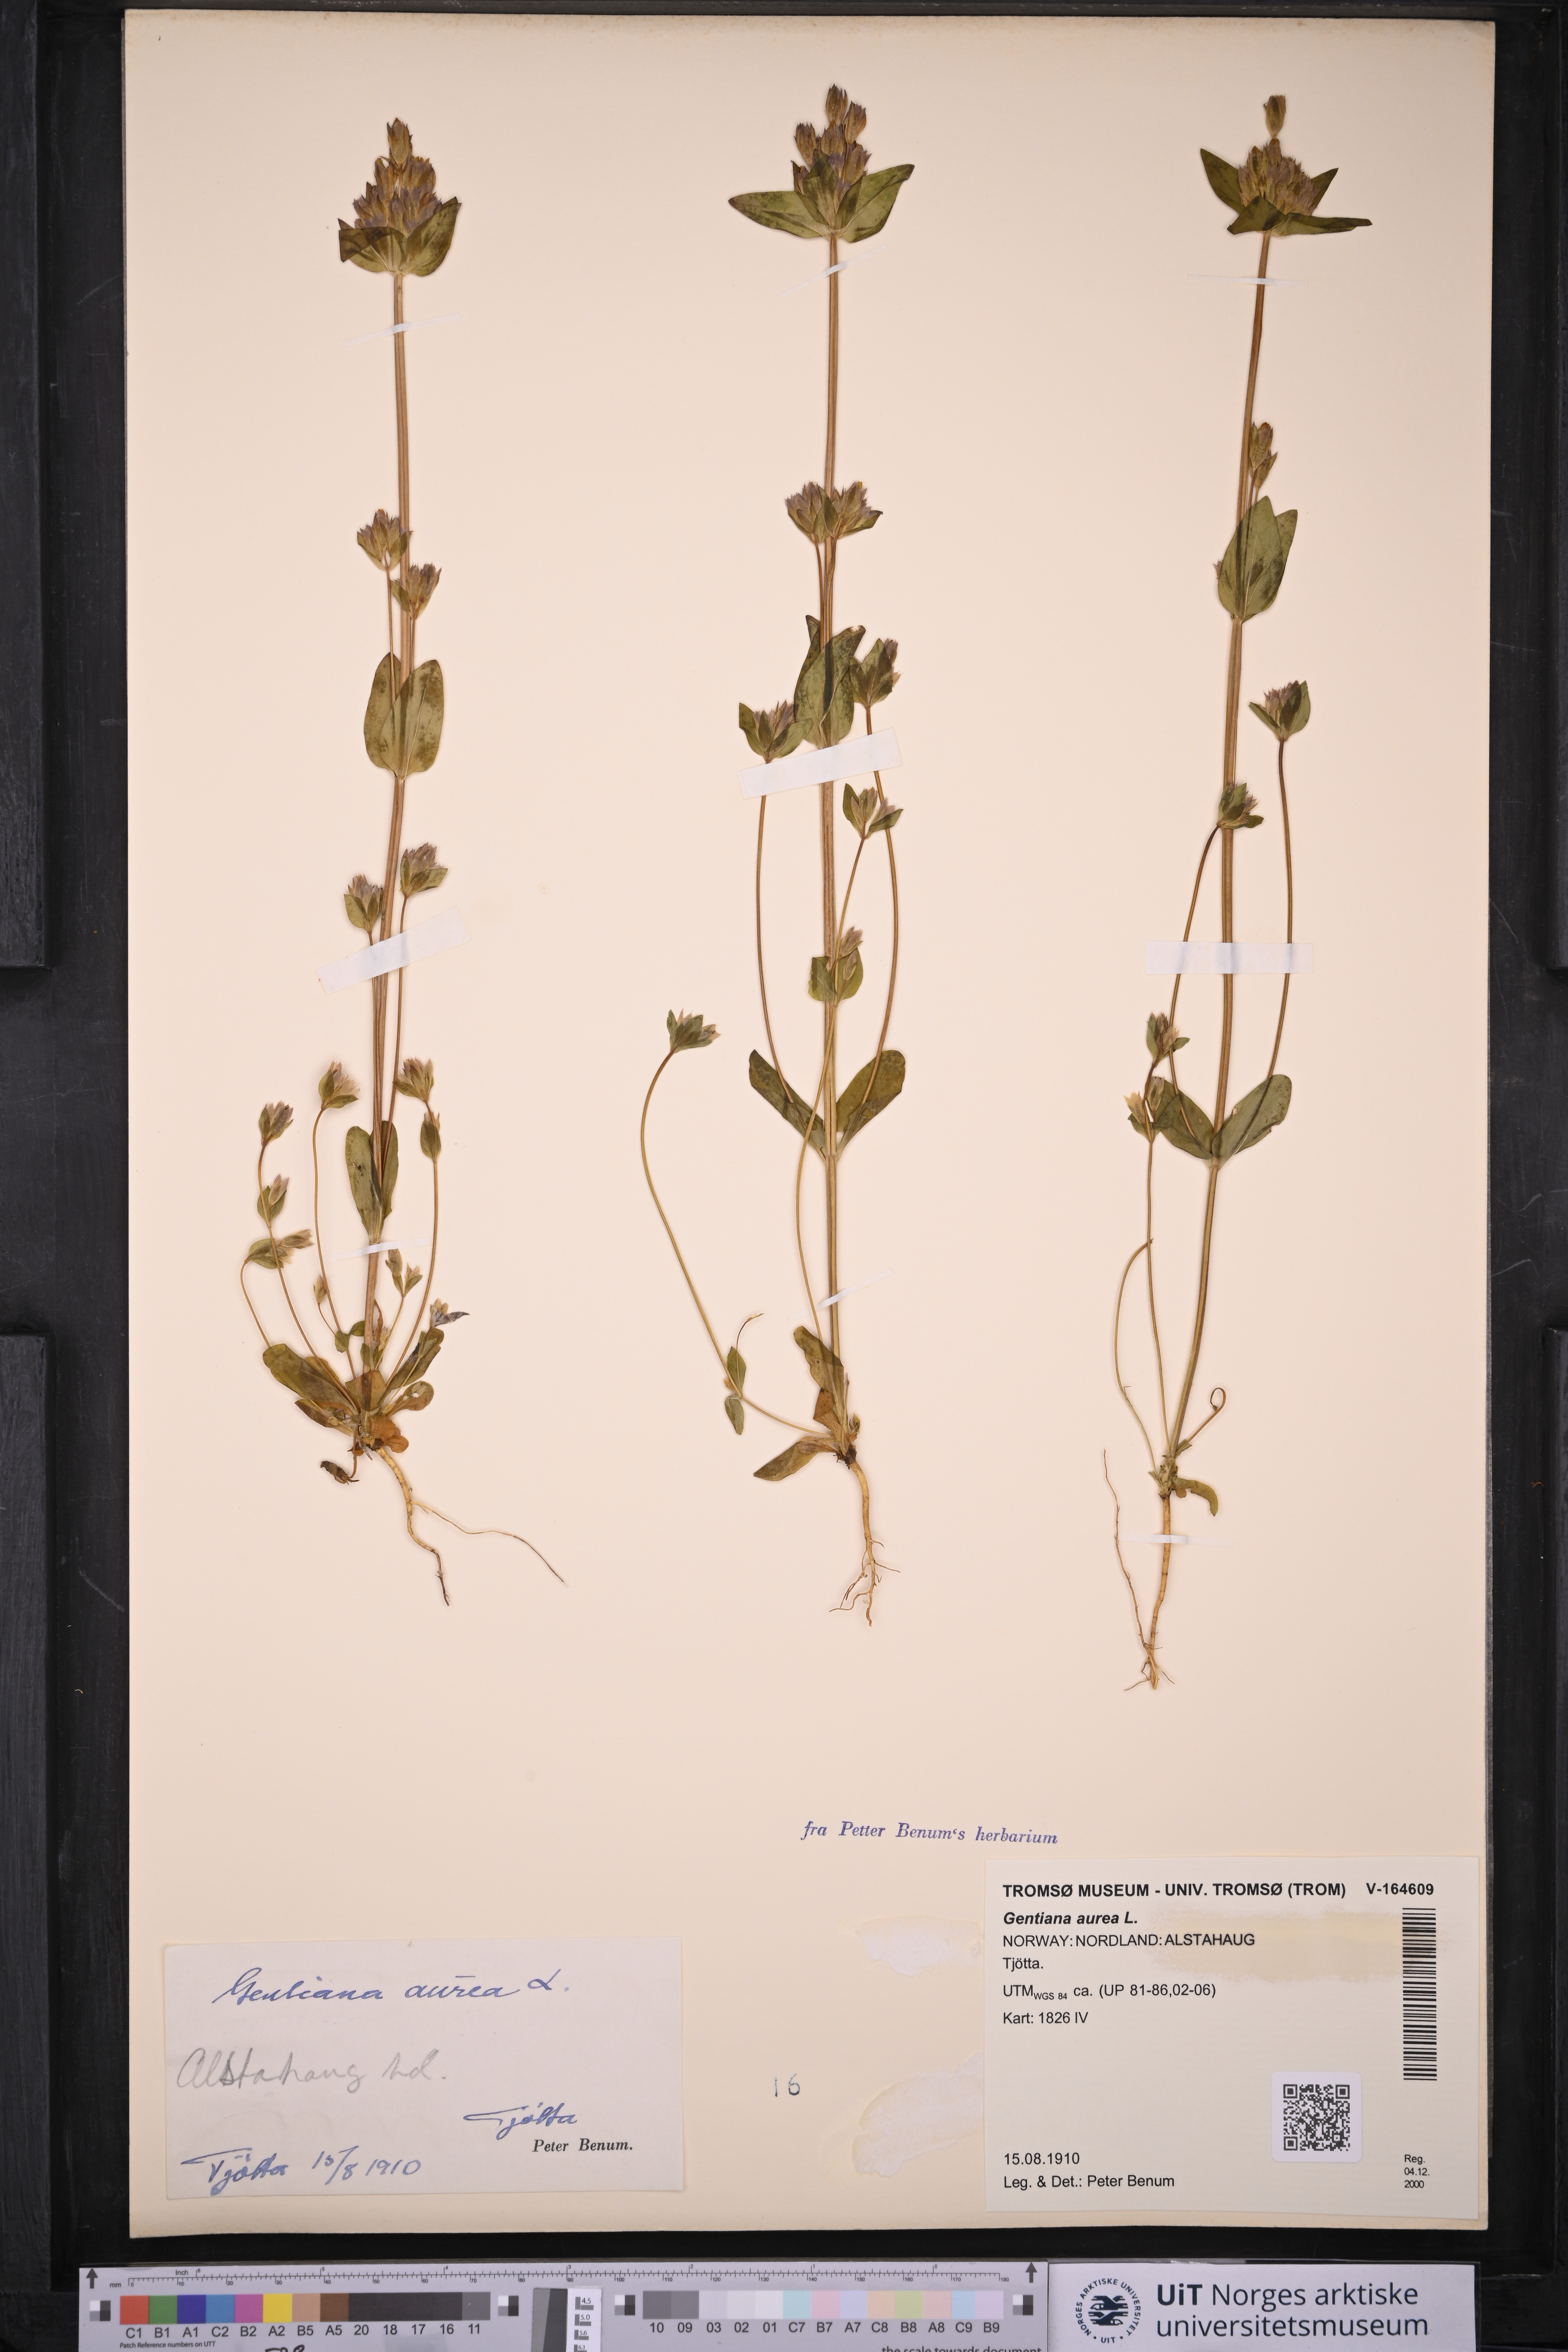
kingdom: Plantae
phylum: Tracheophyta
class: Magnoliopsida
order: Gentianales
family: Gentianaceae
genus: Gentianella
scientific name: Gentianella aurea
